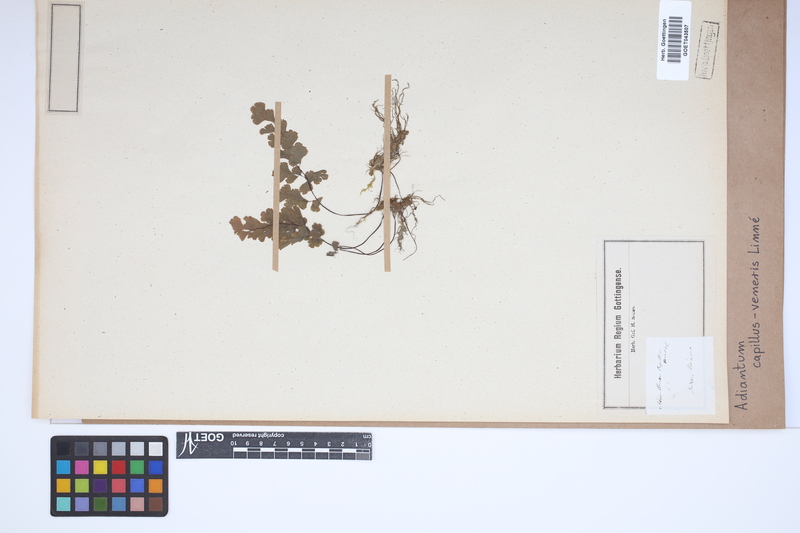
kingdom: Plantae
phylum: Tracheophyta
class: Polypodiopsida
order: Polypodiales
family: Pteridaceae
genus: Adiantum
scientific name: Adiantum capillus-veneris
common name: Maidenhair fern
